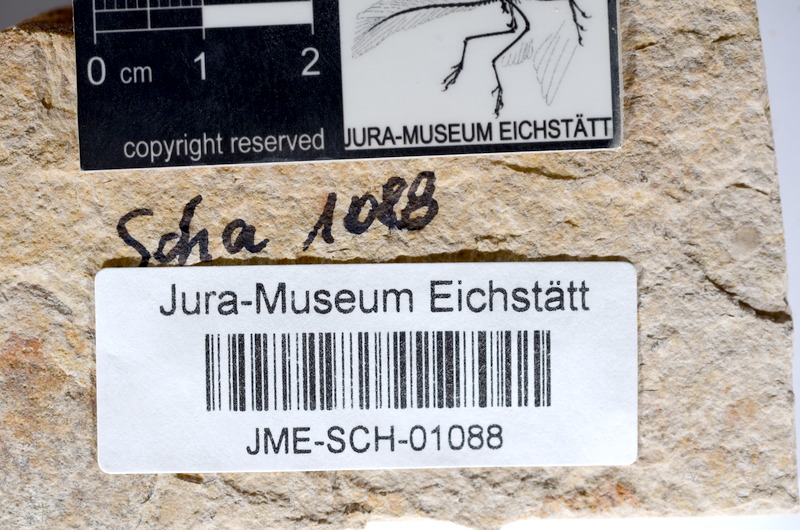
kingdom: Animalia
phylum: Chordata
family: Ascalaboidae
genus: Tharsis
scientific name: Tharsis dubius
